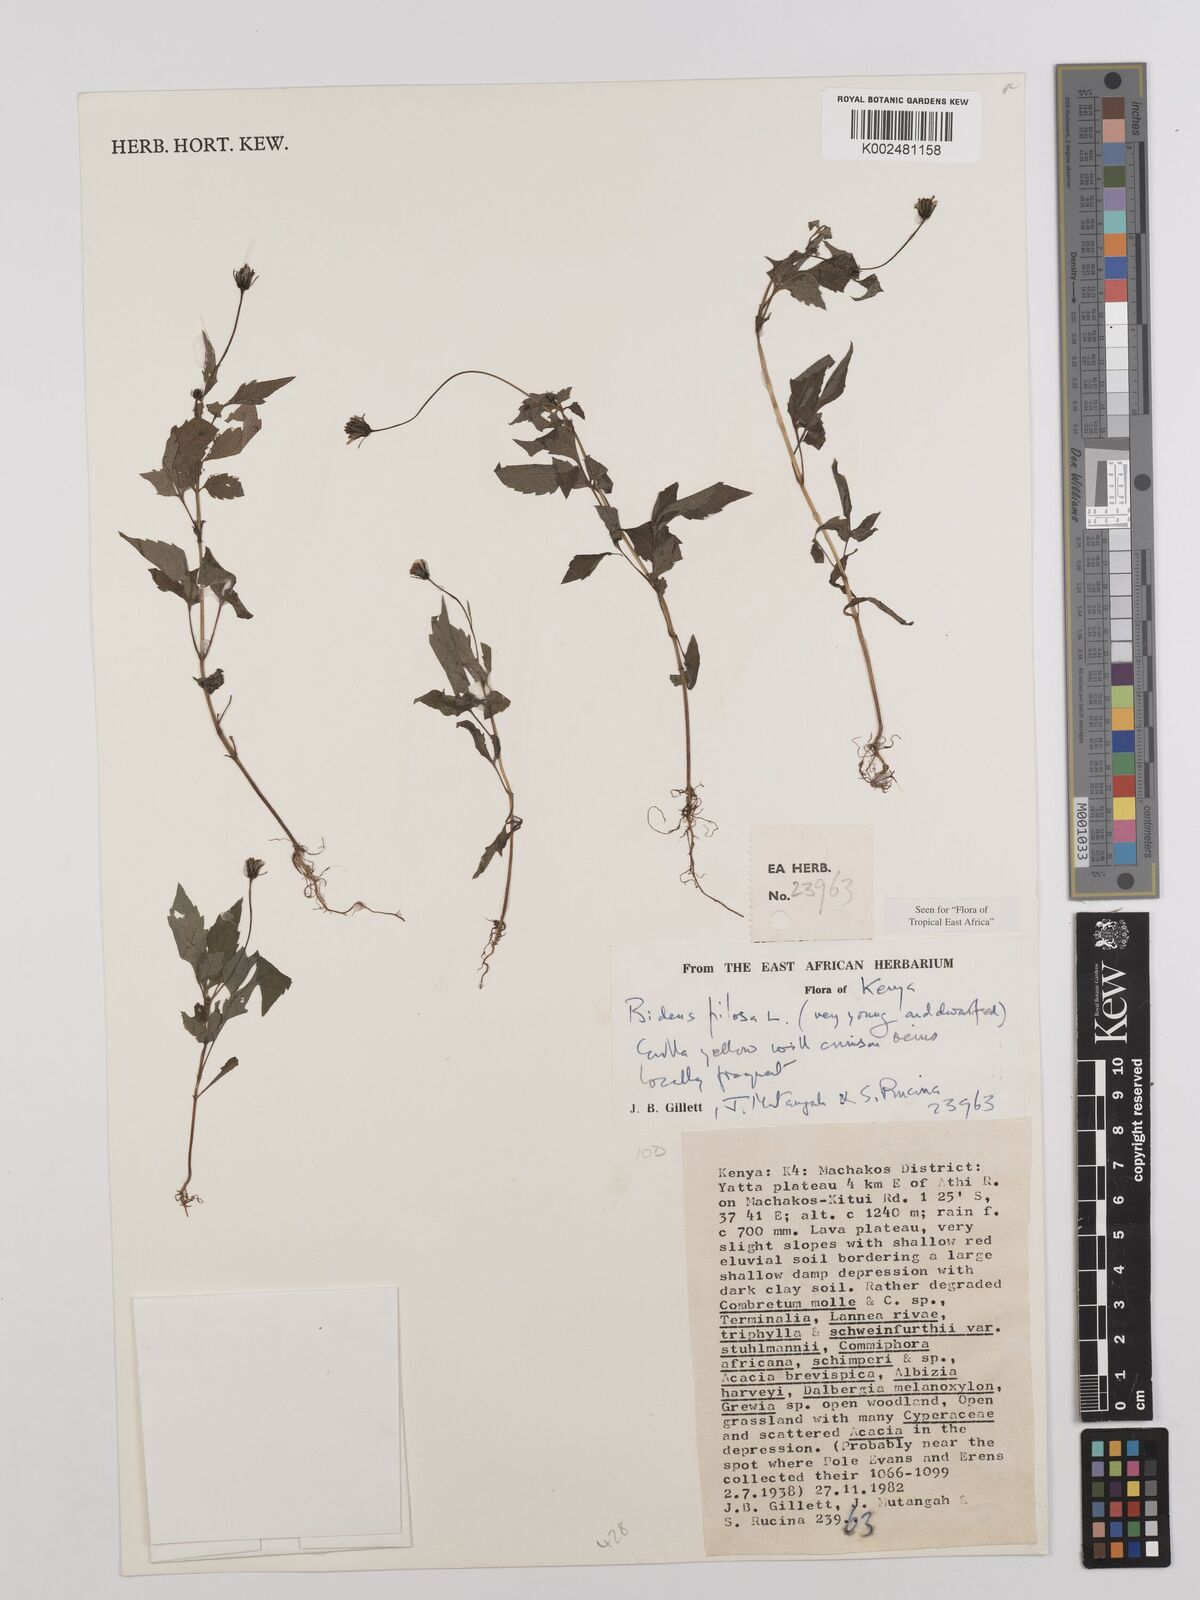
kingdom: Plantae
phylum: Tracheophyta
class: Magnoliopsida
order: Asterales
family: Asteraceae
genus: Bidens
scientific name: Bidens pilosa
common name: Black-jack
